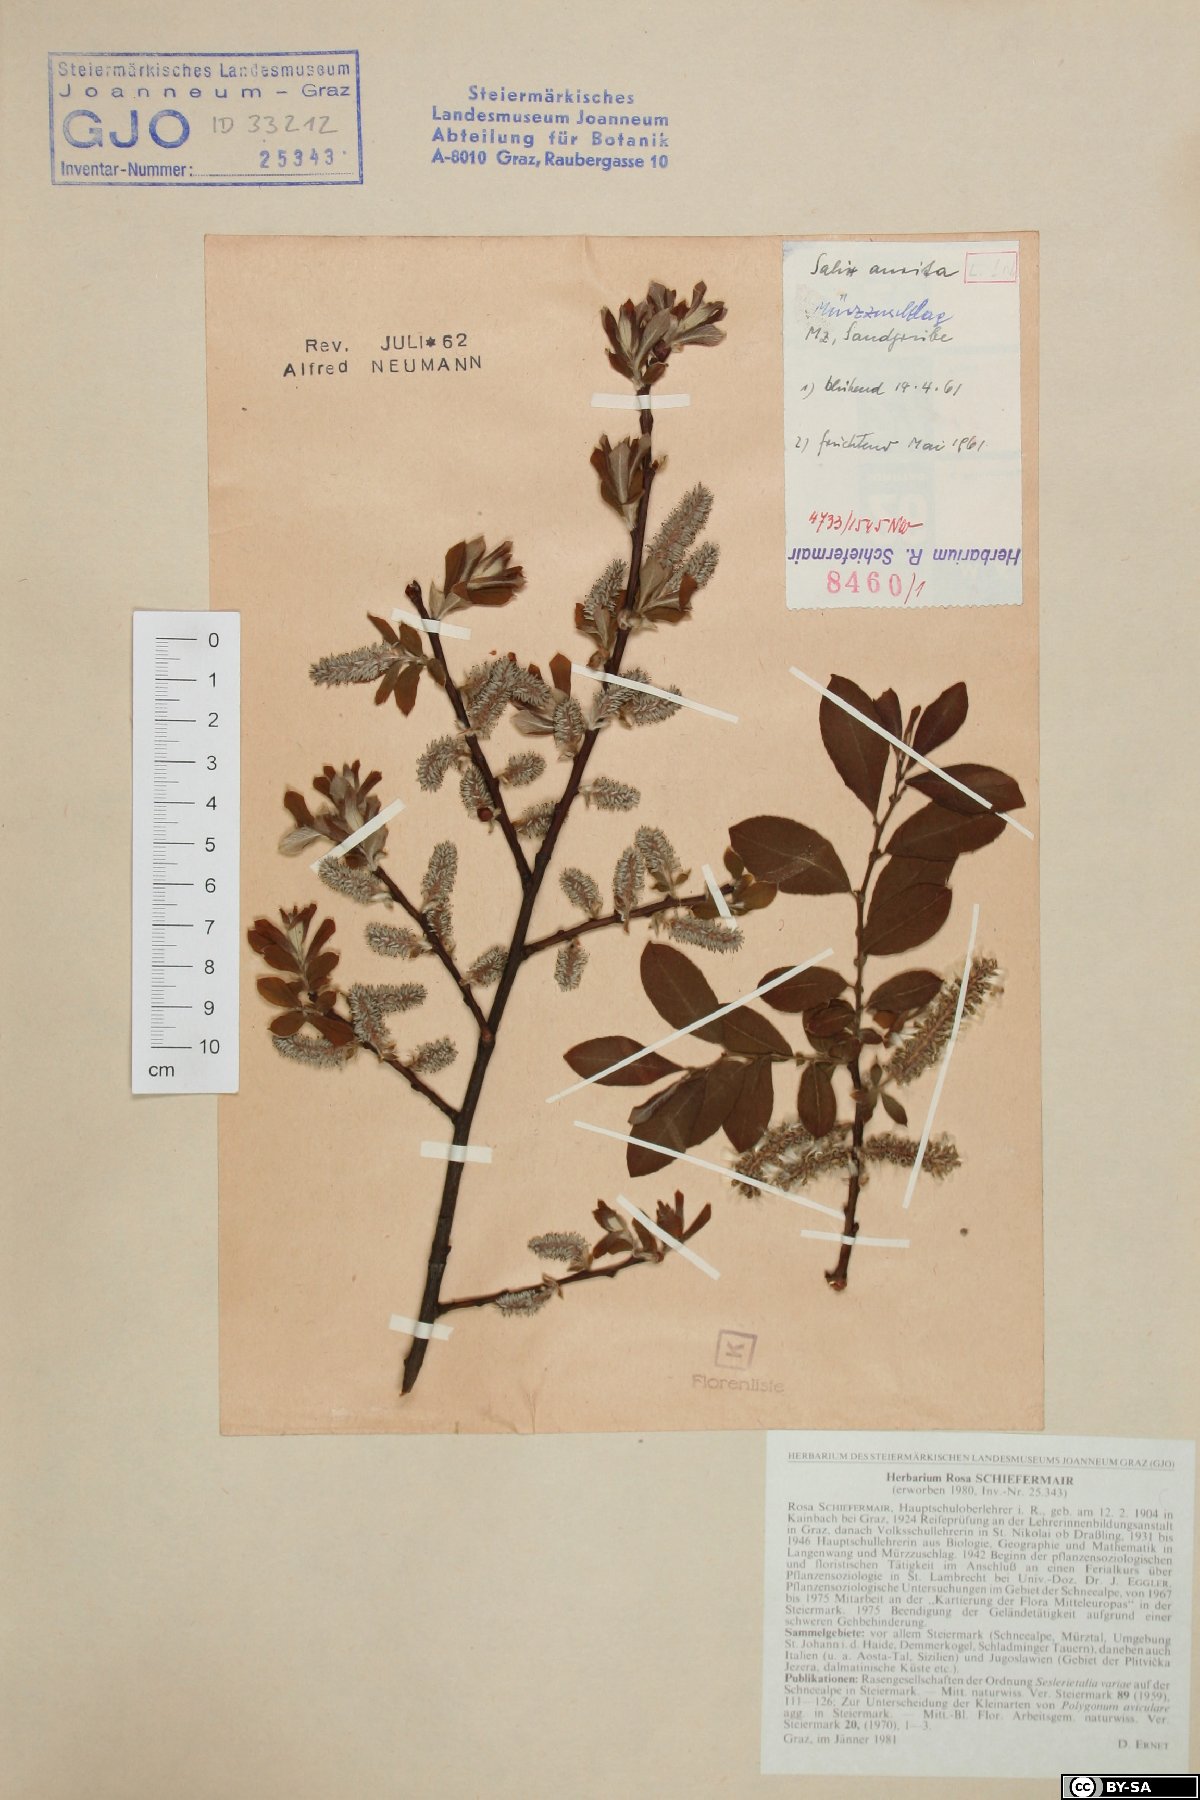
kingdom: Plantae
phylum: Tracheophyta
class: Magnoliopsida
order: Malpighiales
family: Salicaceae
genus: Salix
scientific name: Salix aurita
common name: Eared willow
